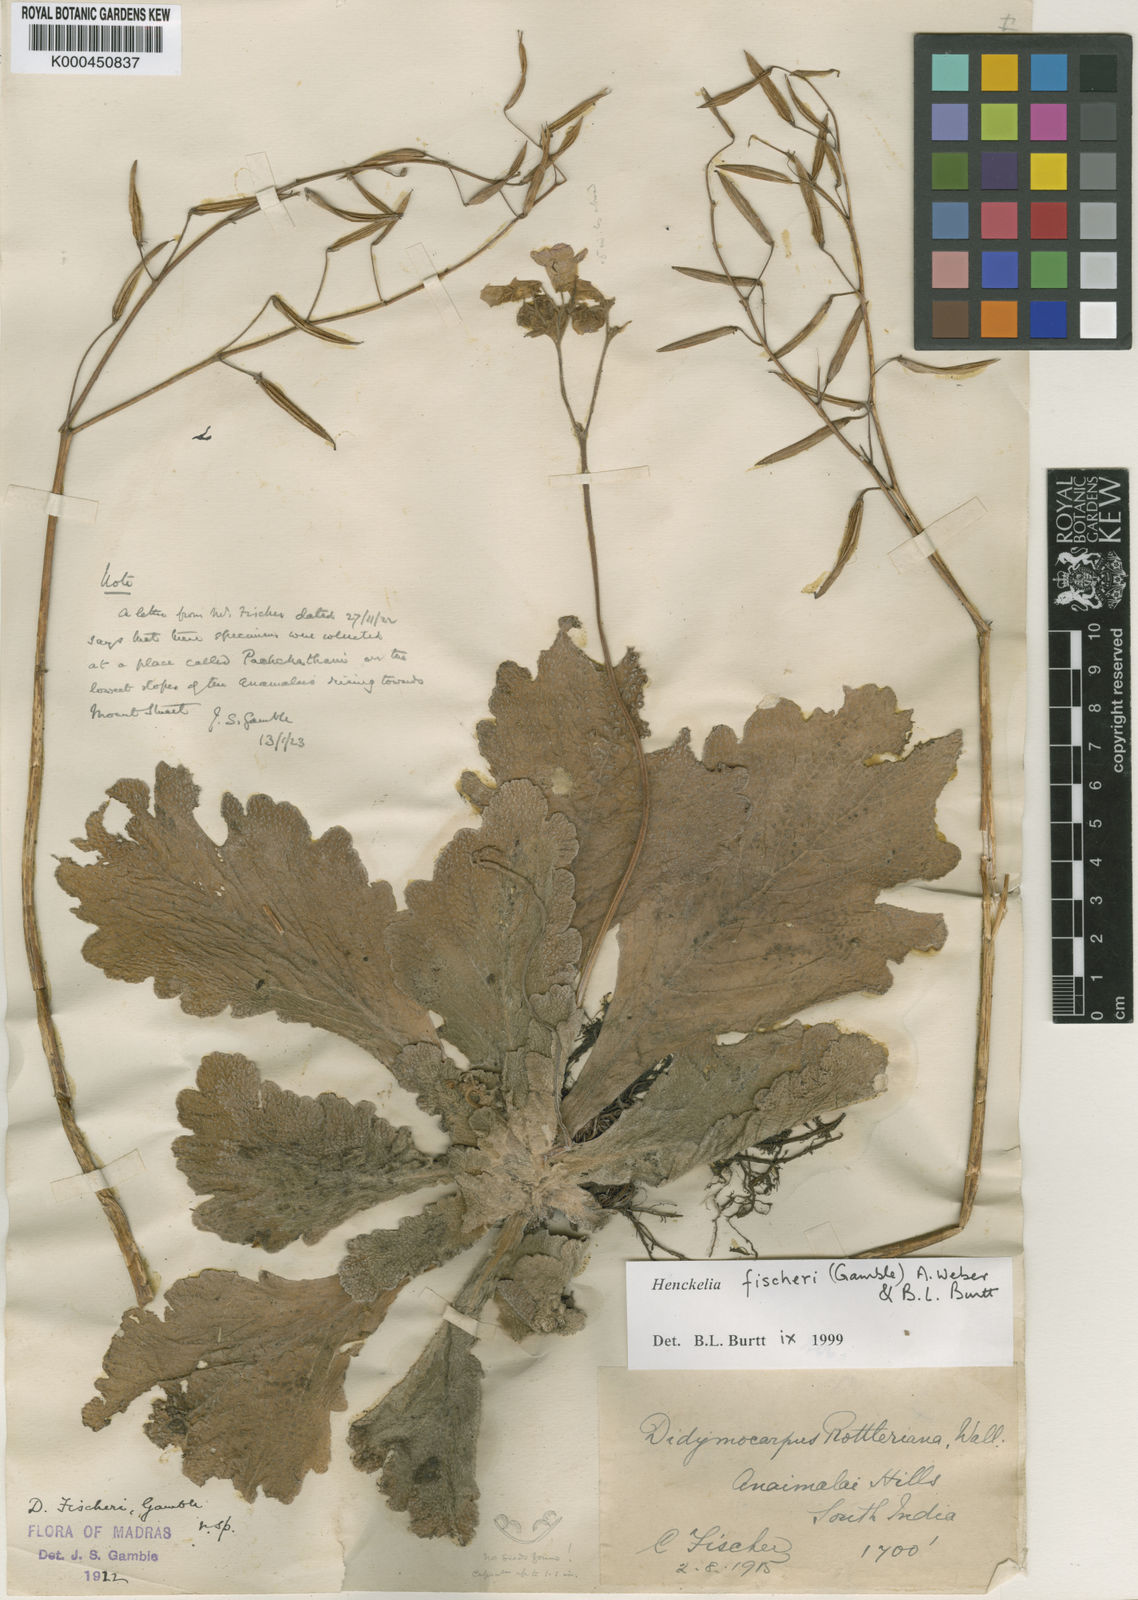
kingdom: Plantae
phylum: Tracheophyta
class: Magnoliopsida
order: Lamiales
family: Gesneriaceae
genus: Henckelia
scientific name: Henckelia fischeri
